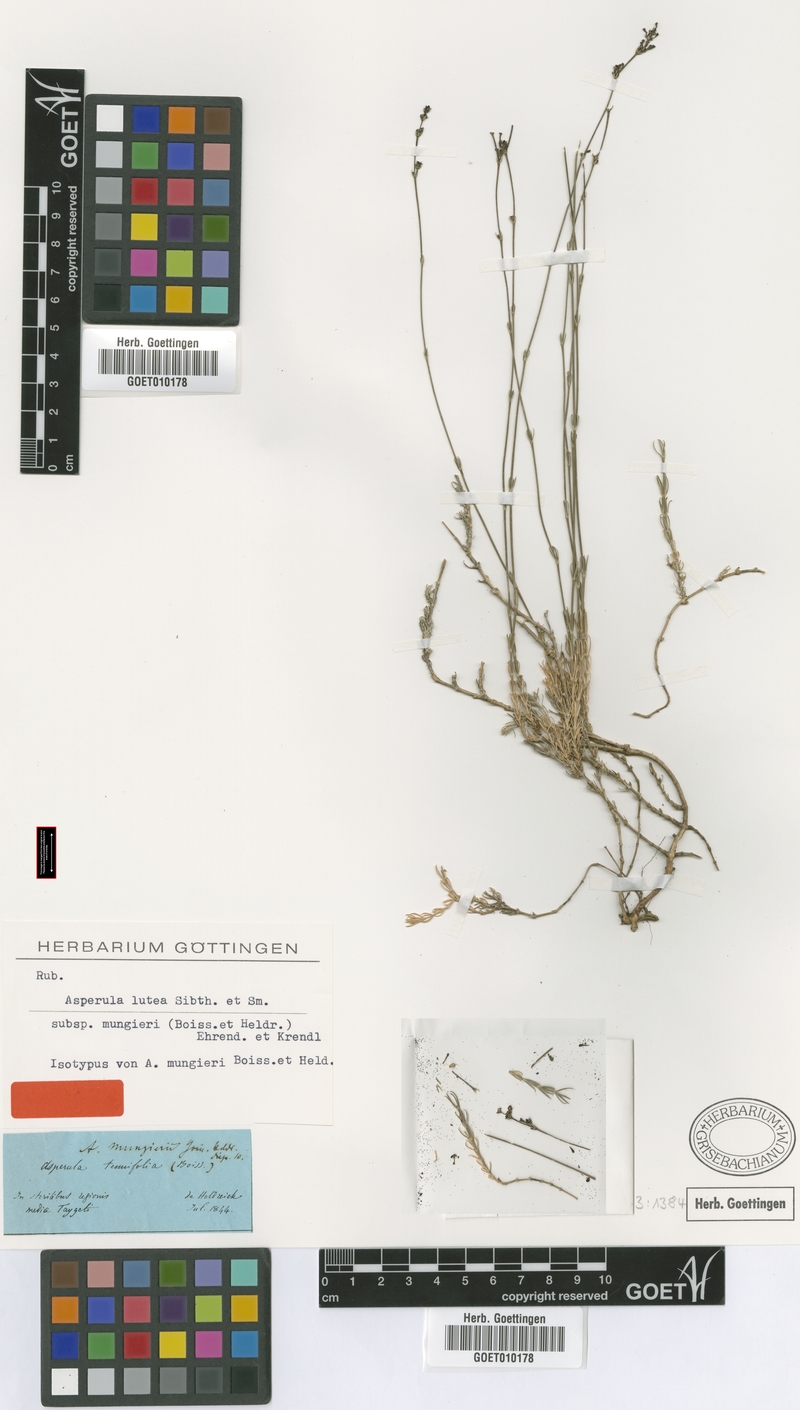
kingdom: Plantae
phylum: Tracheophyta
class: Magnoliopsida
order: Gentianales
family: Rubiaceae
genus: Cynanchica
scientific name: Cynanchica mungieri
